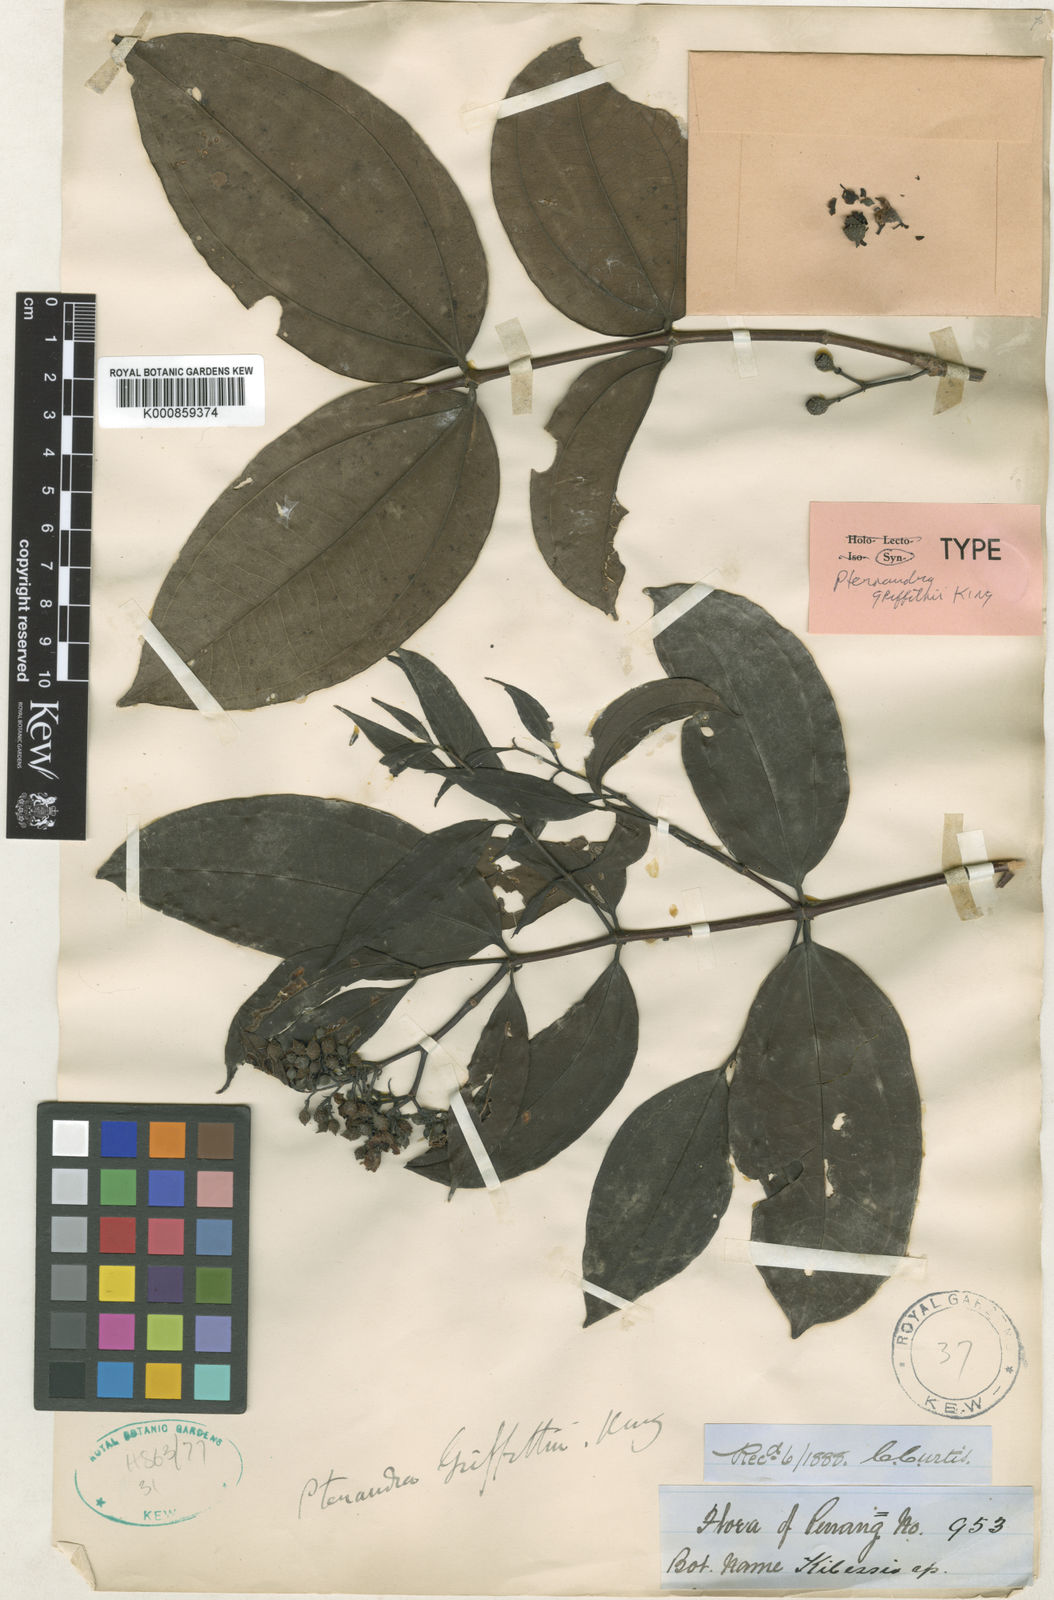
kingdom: Plantae
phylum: Tracheophyta
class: Magnoliopsida
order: Myrtales
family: Melastomataceae
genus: Pternandra
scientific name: Pternandra tuberculata
